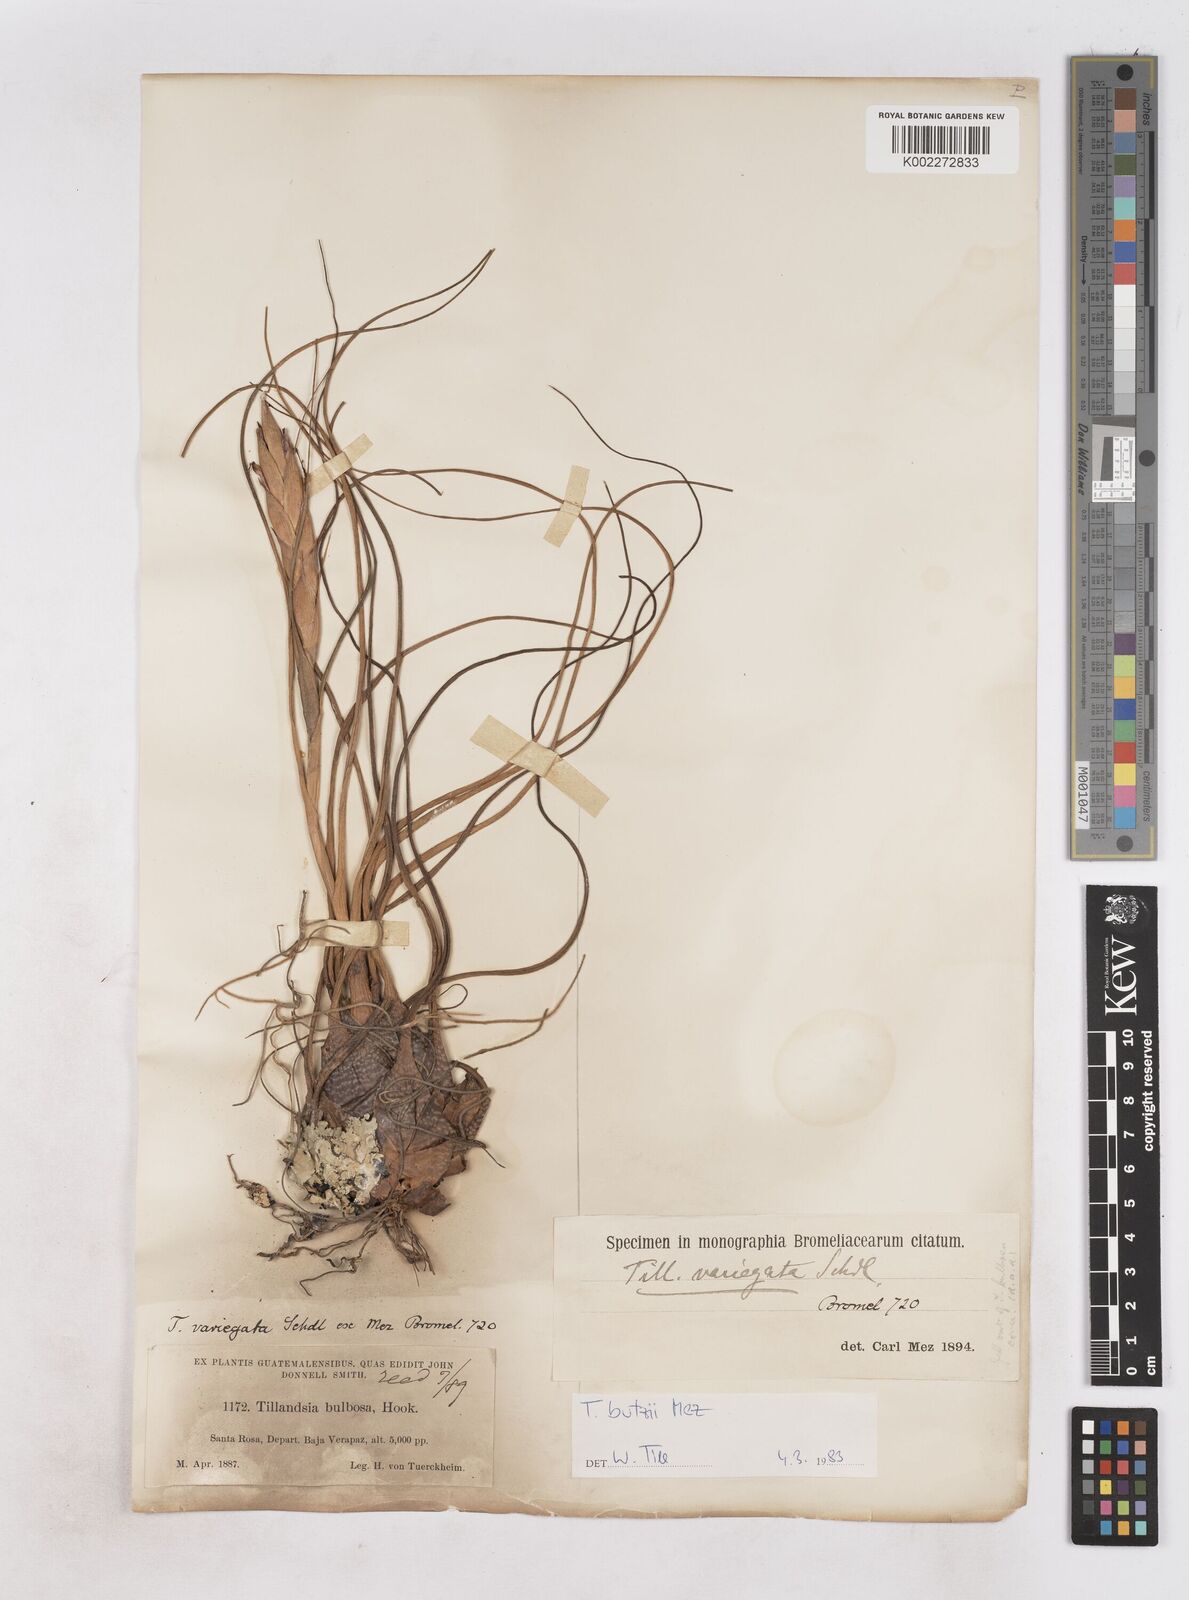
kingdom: Plantae
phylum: Tracheophyta
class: Liliopsida
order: Poales
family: Bromeliaceae
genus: Tillandsia
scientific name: Tillandsia butzii
